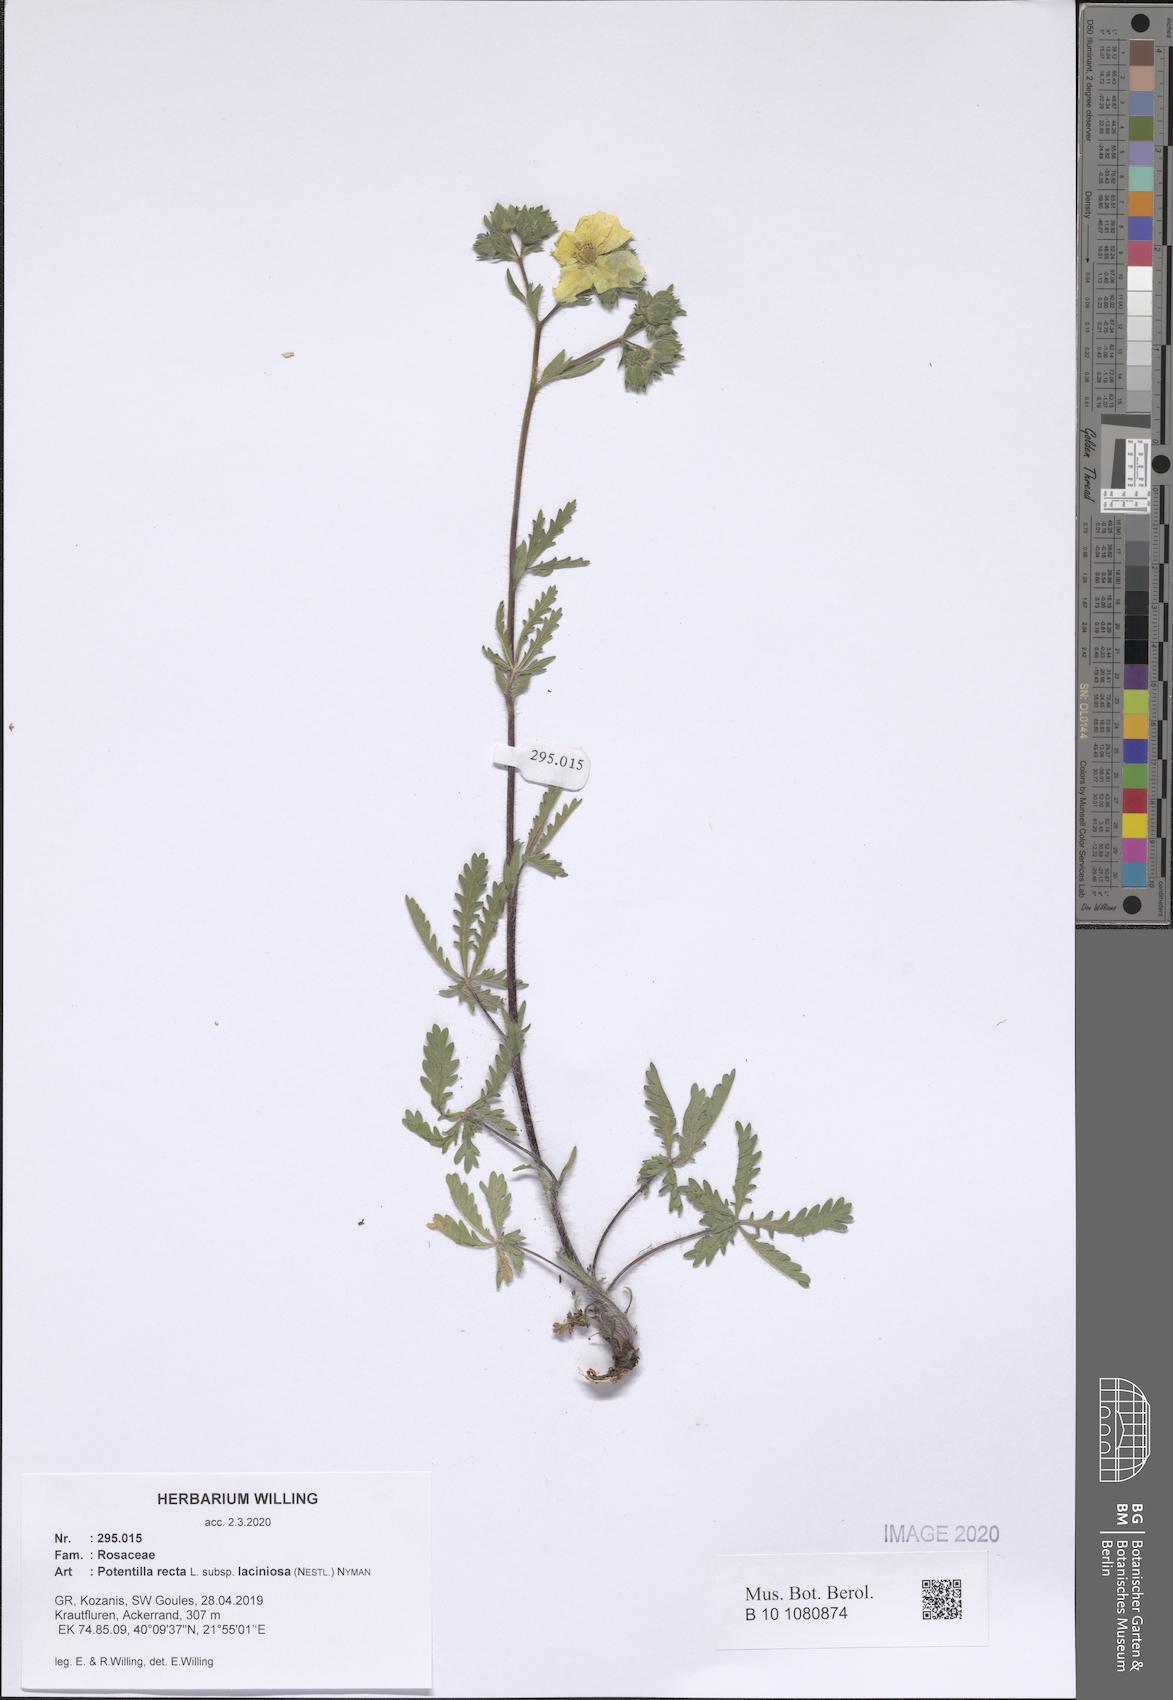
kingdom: Plantae
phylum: Tracheophyta
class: Magnoliopsida
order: Rosales
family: Rosaceae
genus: Potentilla
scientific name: Potentilla recta
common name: Sulphur cinquefoil
